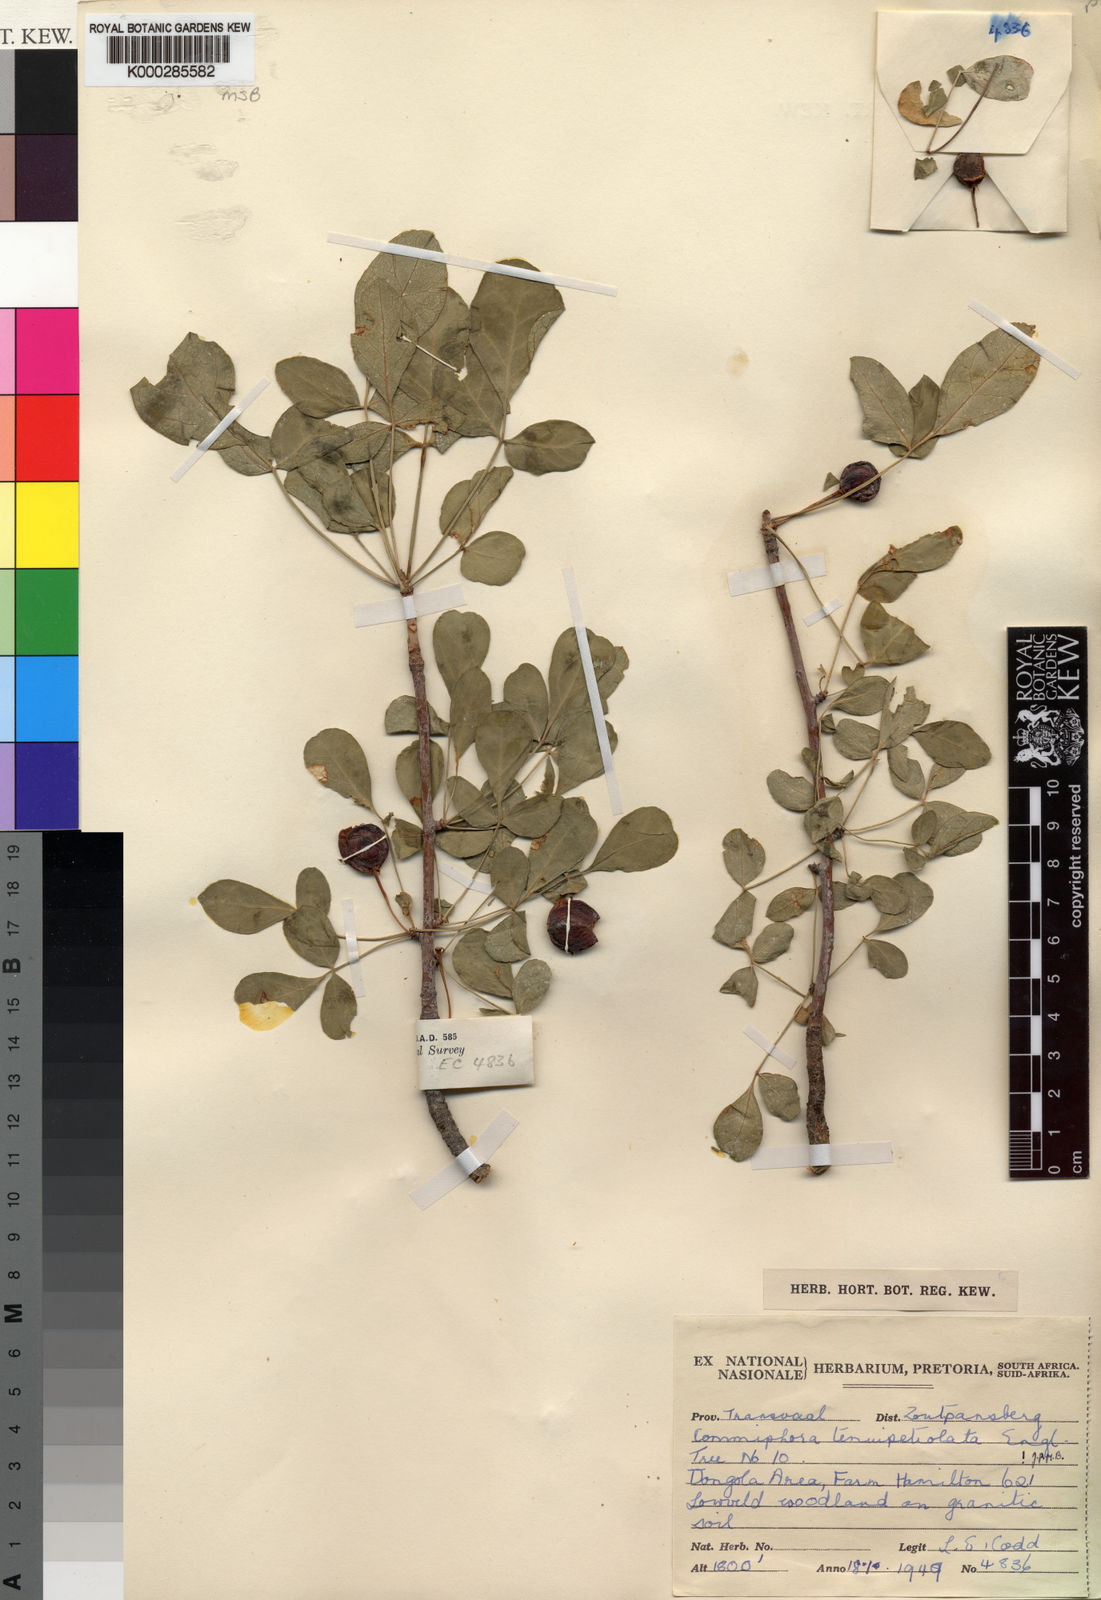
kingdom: Plantae
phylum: Tracheophyta
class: Magnoliopsida
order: Sapindales
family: Burseraceae
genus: Commiphora
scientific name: Commiphora tenuipetiolata
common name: Satin-bark corkwood
